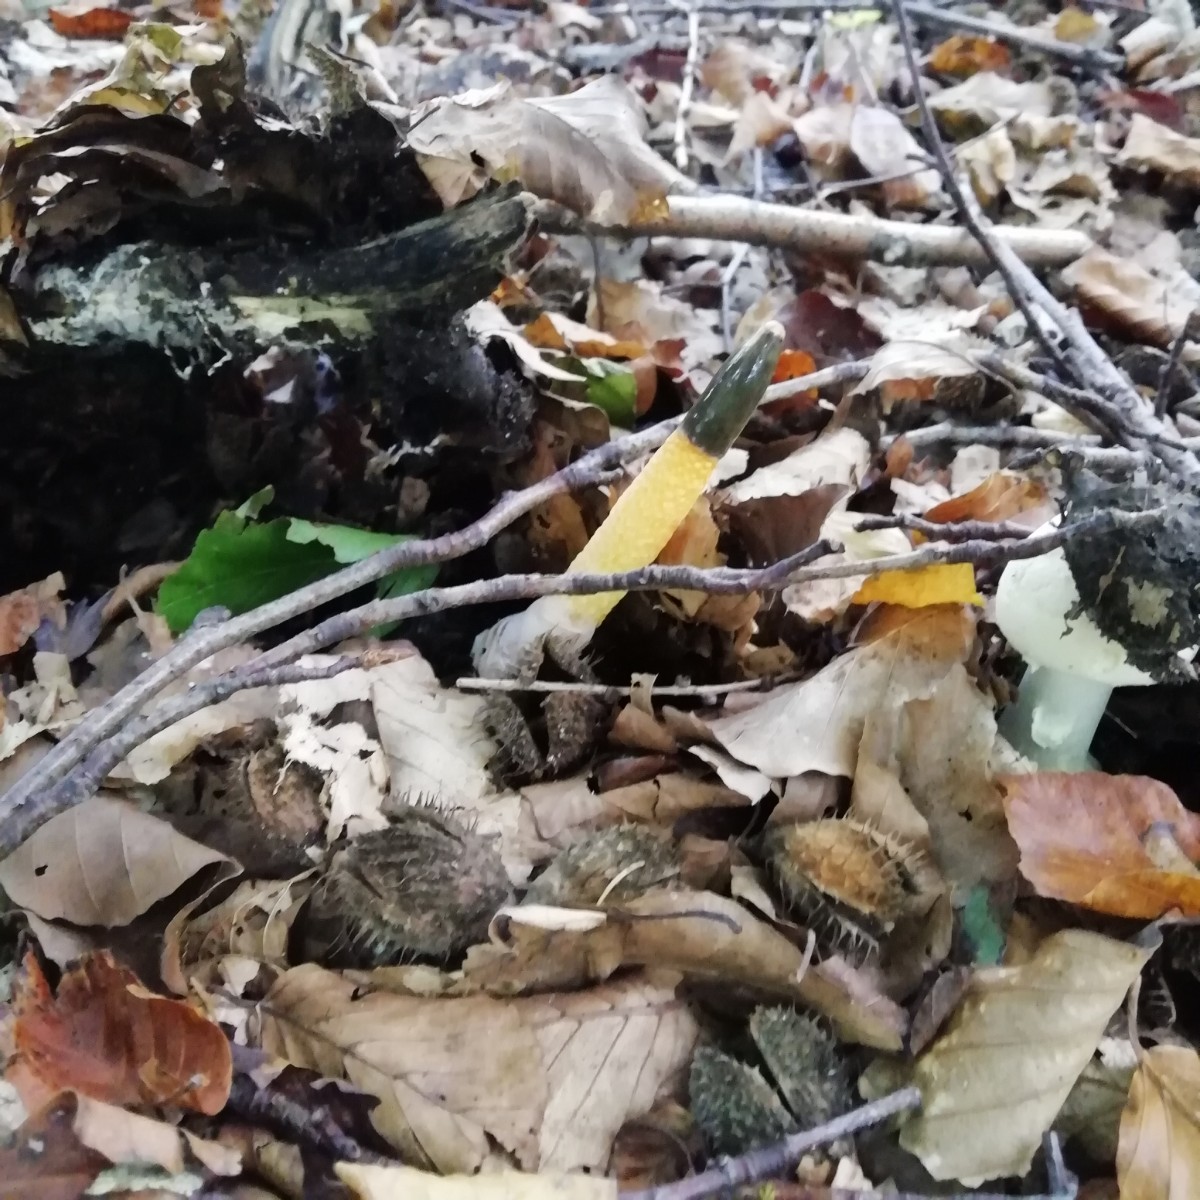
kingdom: Fungi
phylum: Basidiomycota
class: Agaricomycetes
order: Phallales
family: Phallaceae
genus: Mutinus
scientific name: Mutinus caninus
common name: hunde-stinksvamp
